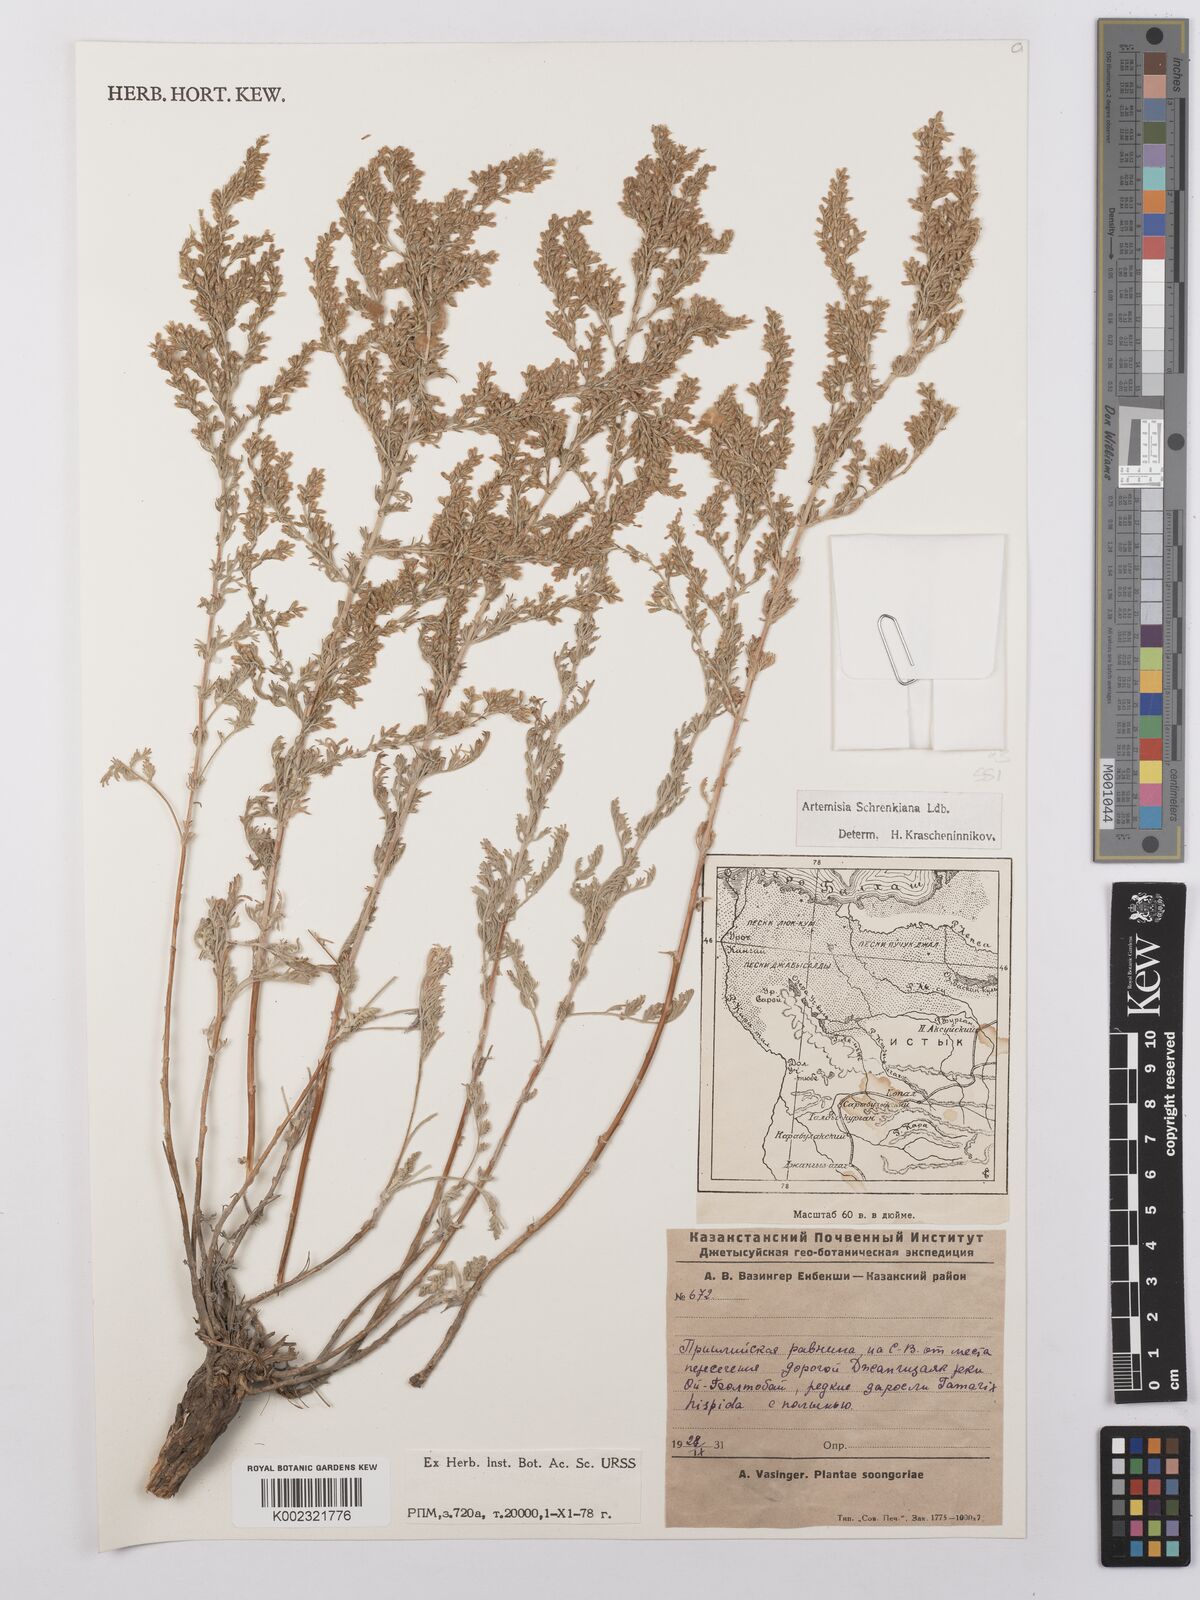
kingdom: Plantae
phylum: Tracheophyta
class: Magnoliopsida
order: Asterales
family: Asteraceae
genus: Artemisia
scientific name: Artemisia schrenkiana
